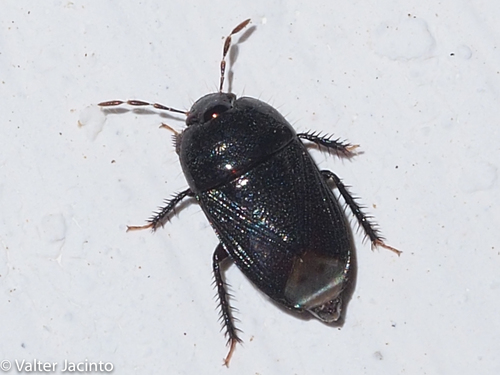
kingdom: Animalia
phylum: Arthropoda
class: Insecta
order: Hemiptera
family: Cydnidae
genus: Geotomus
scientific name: Geotomus elongatus
